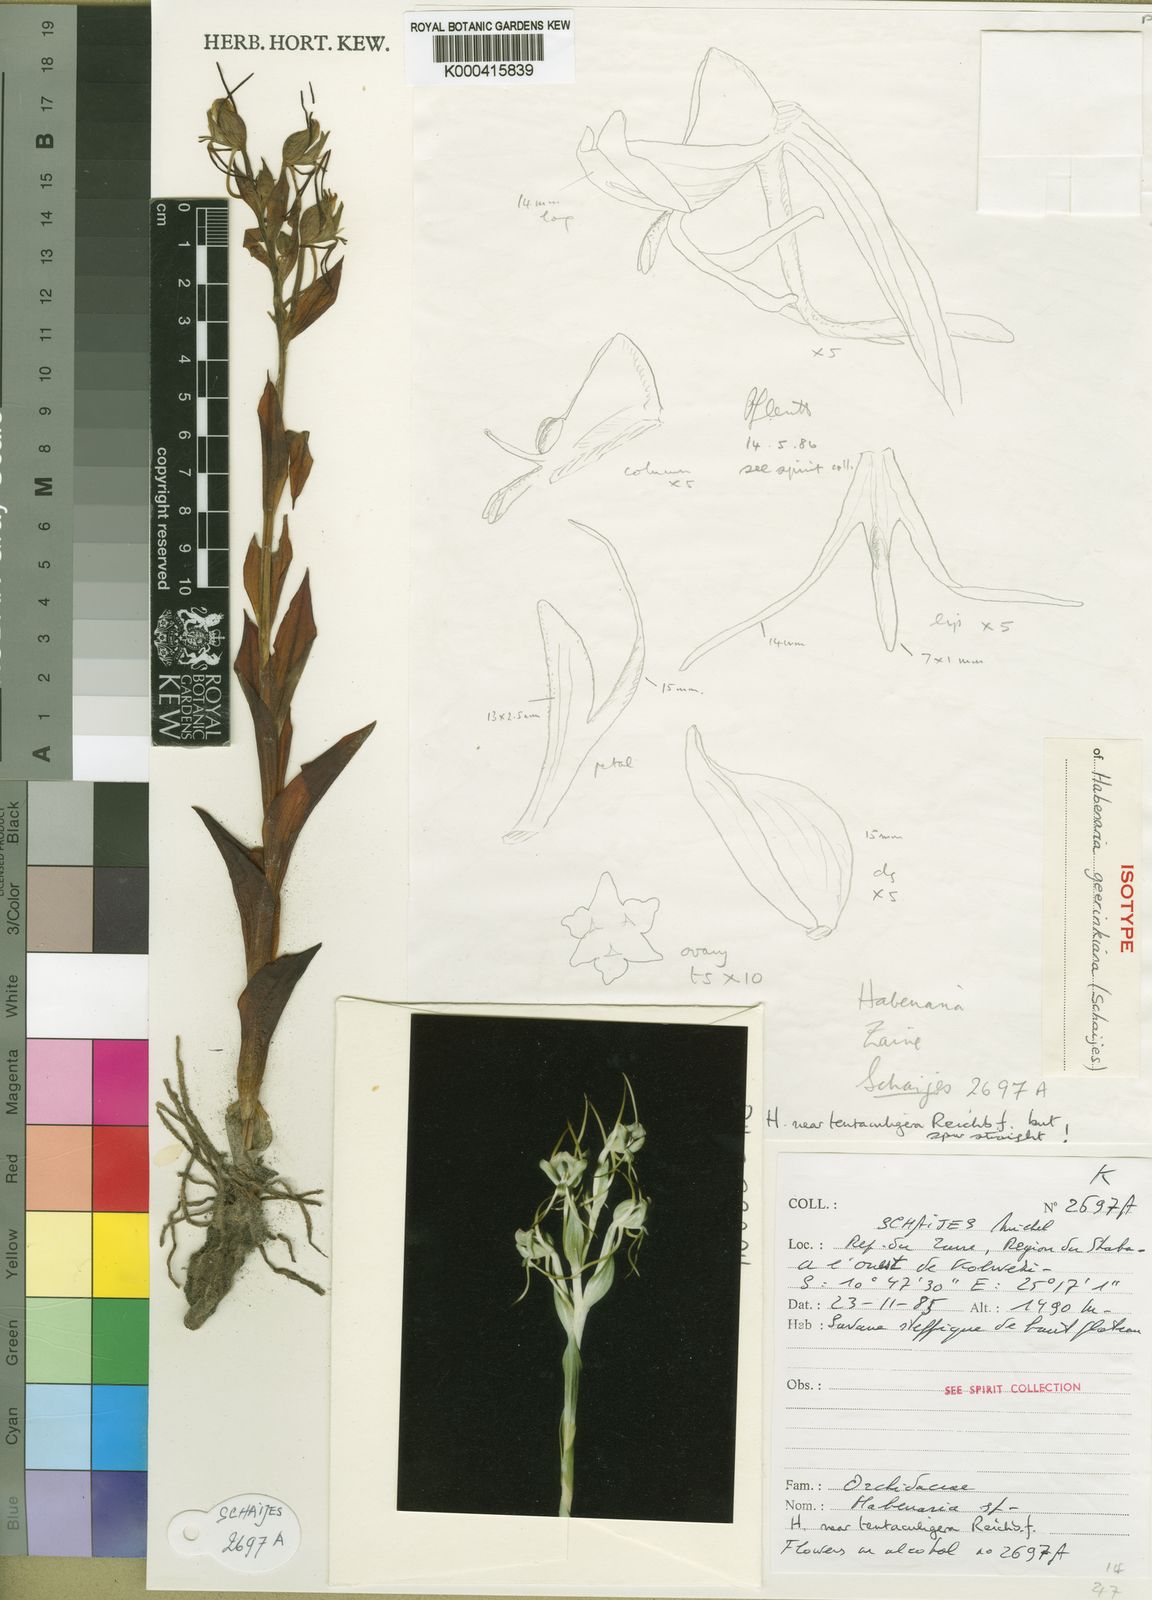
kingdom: Plantae
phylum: Tracheophyta
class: Liliopsida
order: Asparagales
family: Orchidaceae
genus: Habenaria
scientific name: Habenaria
